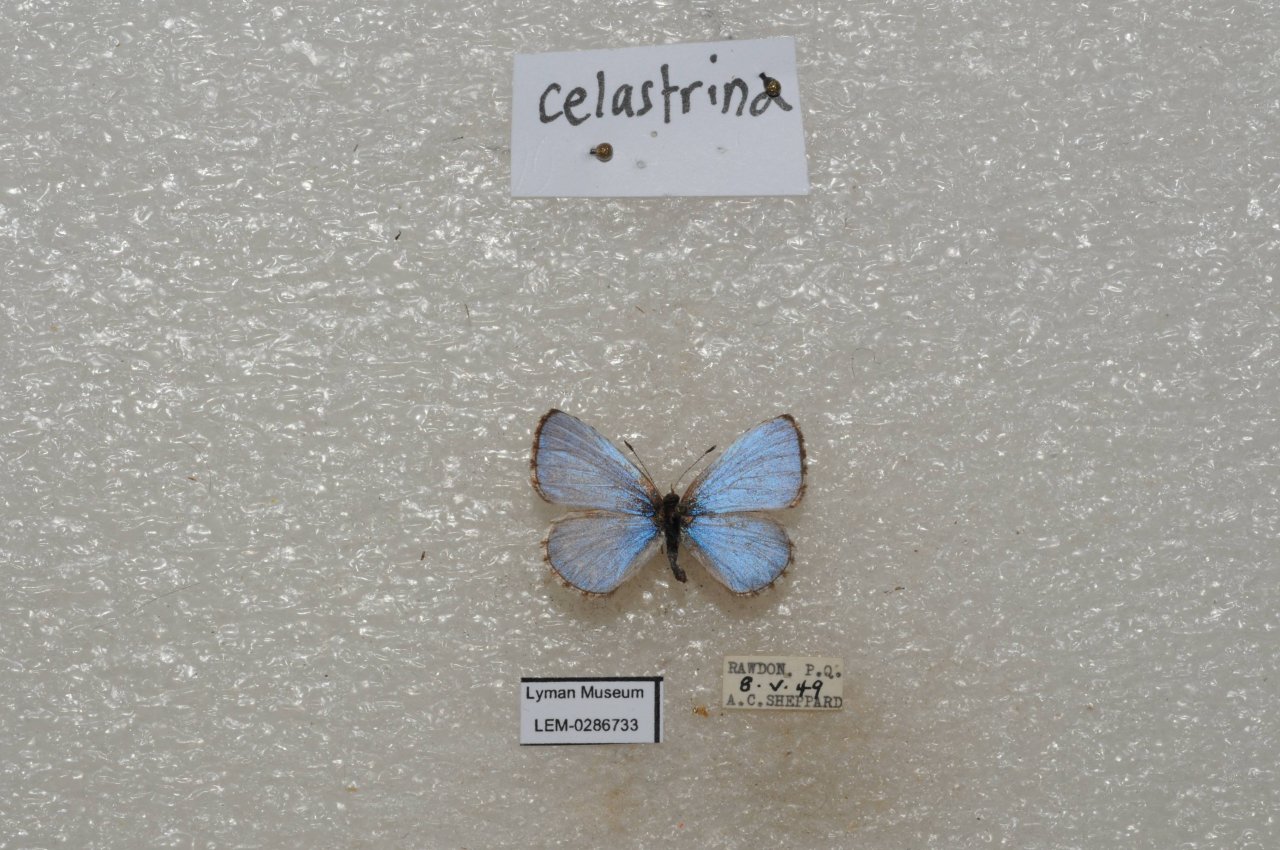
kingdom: Animalia
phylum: Arthropoda
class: Insecta
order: Lepidoptera
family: Lycaenidae
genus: Celastrina
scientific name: Celastrina lucia
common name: Northern Spring Azure
